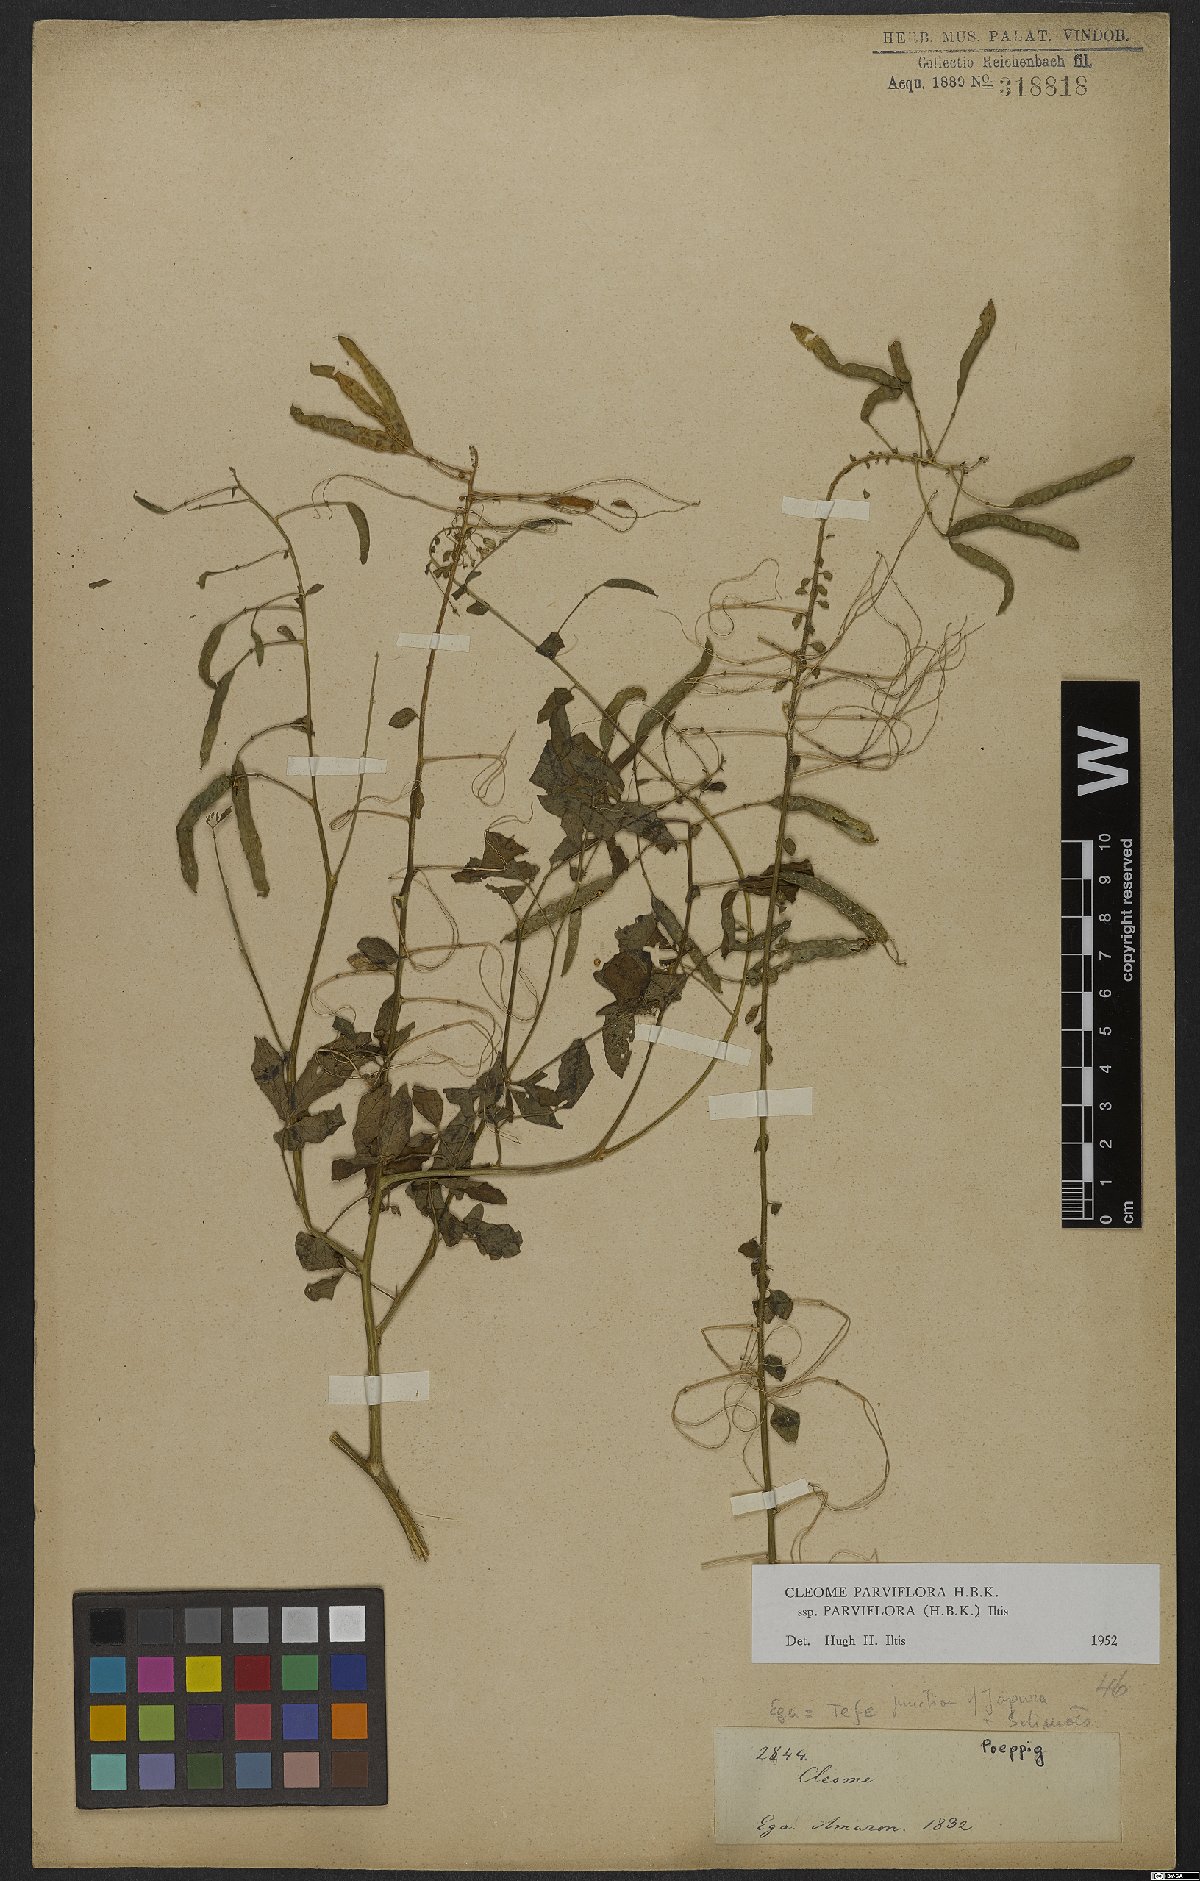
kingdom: Plantae
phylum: Tracheophyta
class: Magnoliopsida
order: Brassicales
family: Cleomaceae
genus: Tarenaya
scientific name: Tarenaya parviflora
